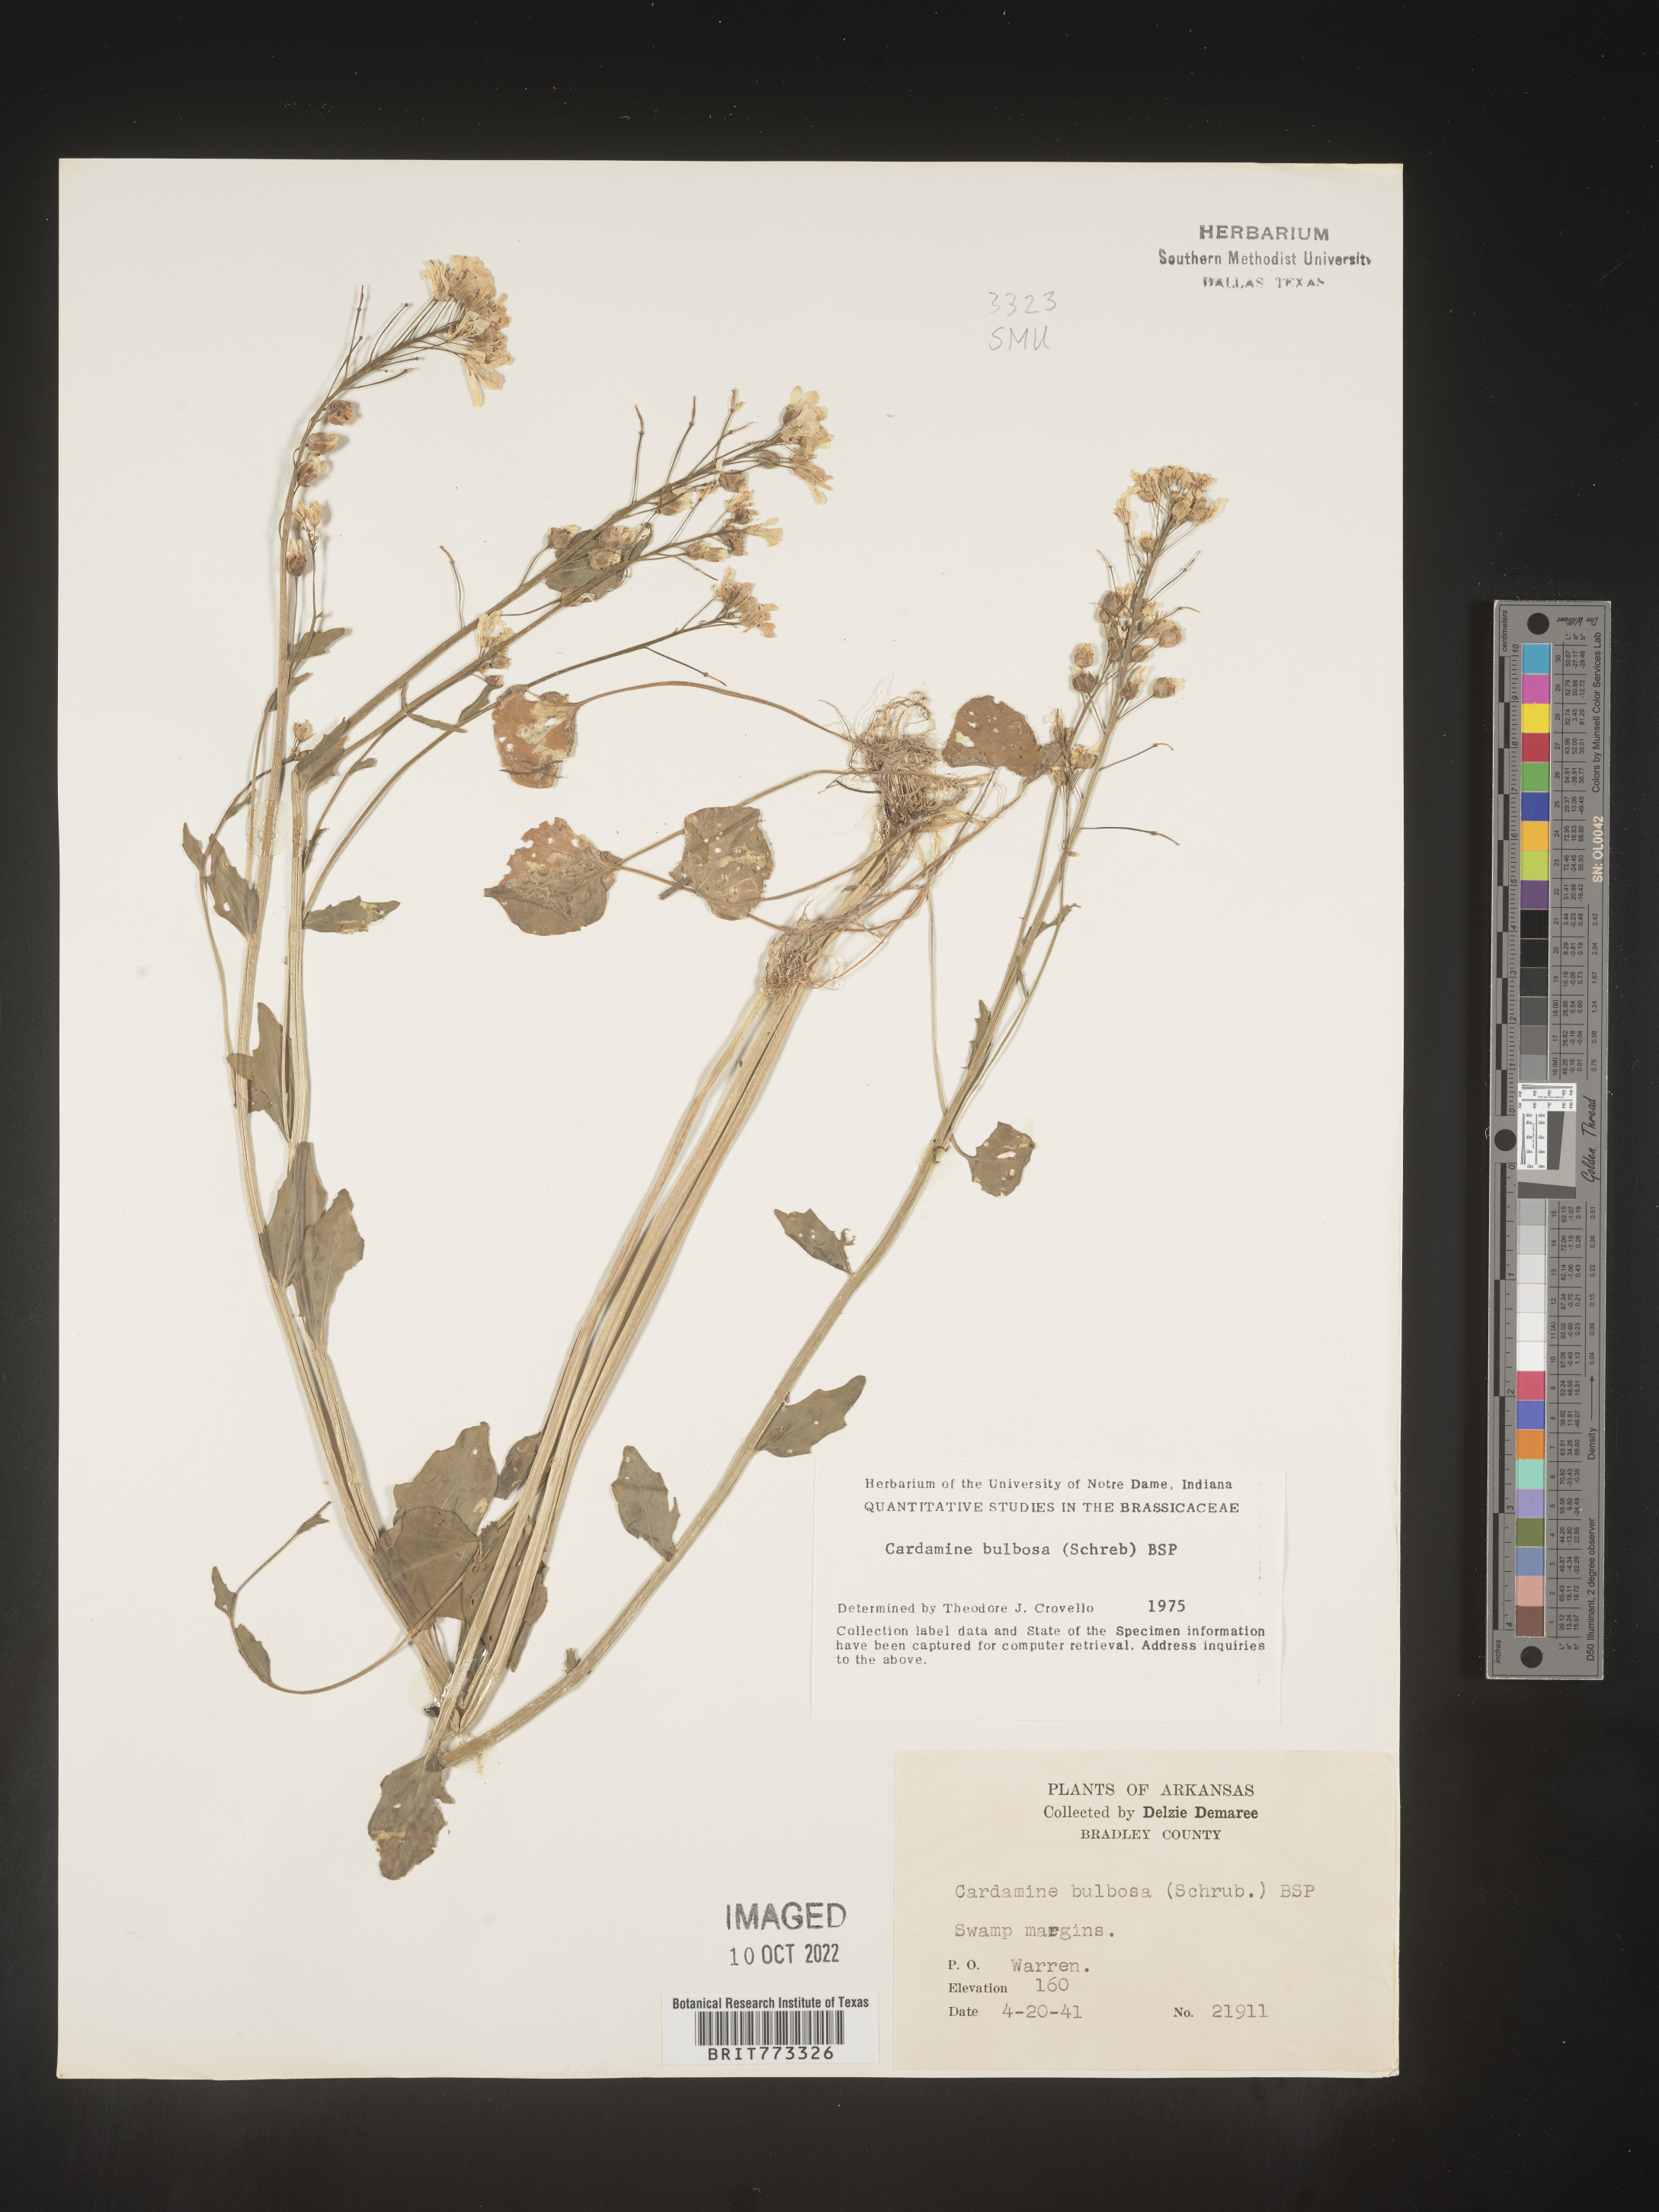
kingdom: Plantae
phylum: Tracheophyta
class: Magnoliopsida
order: Brassicales
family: Brassicaceae
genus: Cardamine
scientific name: Cardamine bulbosa
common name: Spring cress
